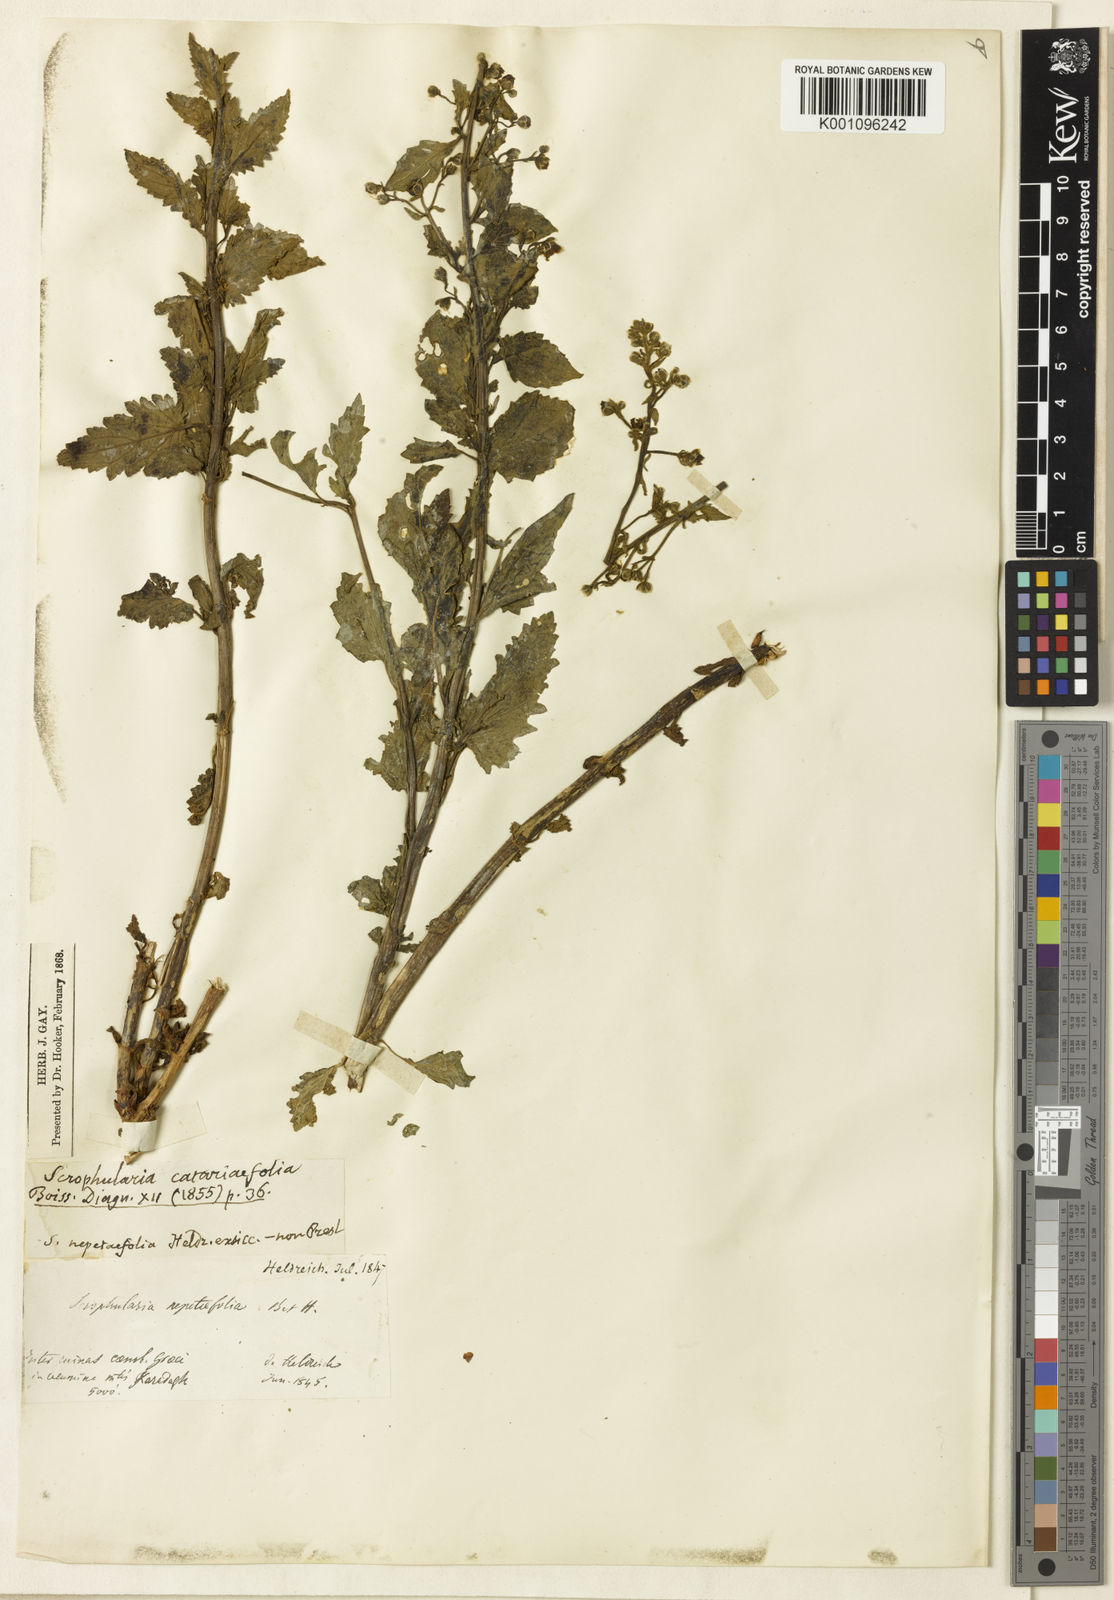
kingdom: Plantae
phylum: Tracheophyta
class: Magnoliopsida
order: Lamiales
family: Scrophulariaceae
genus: Scrophularia
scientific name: Scrophularia catariifolia
